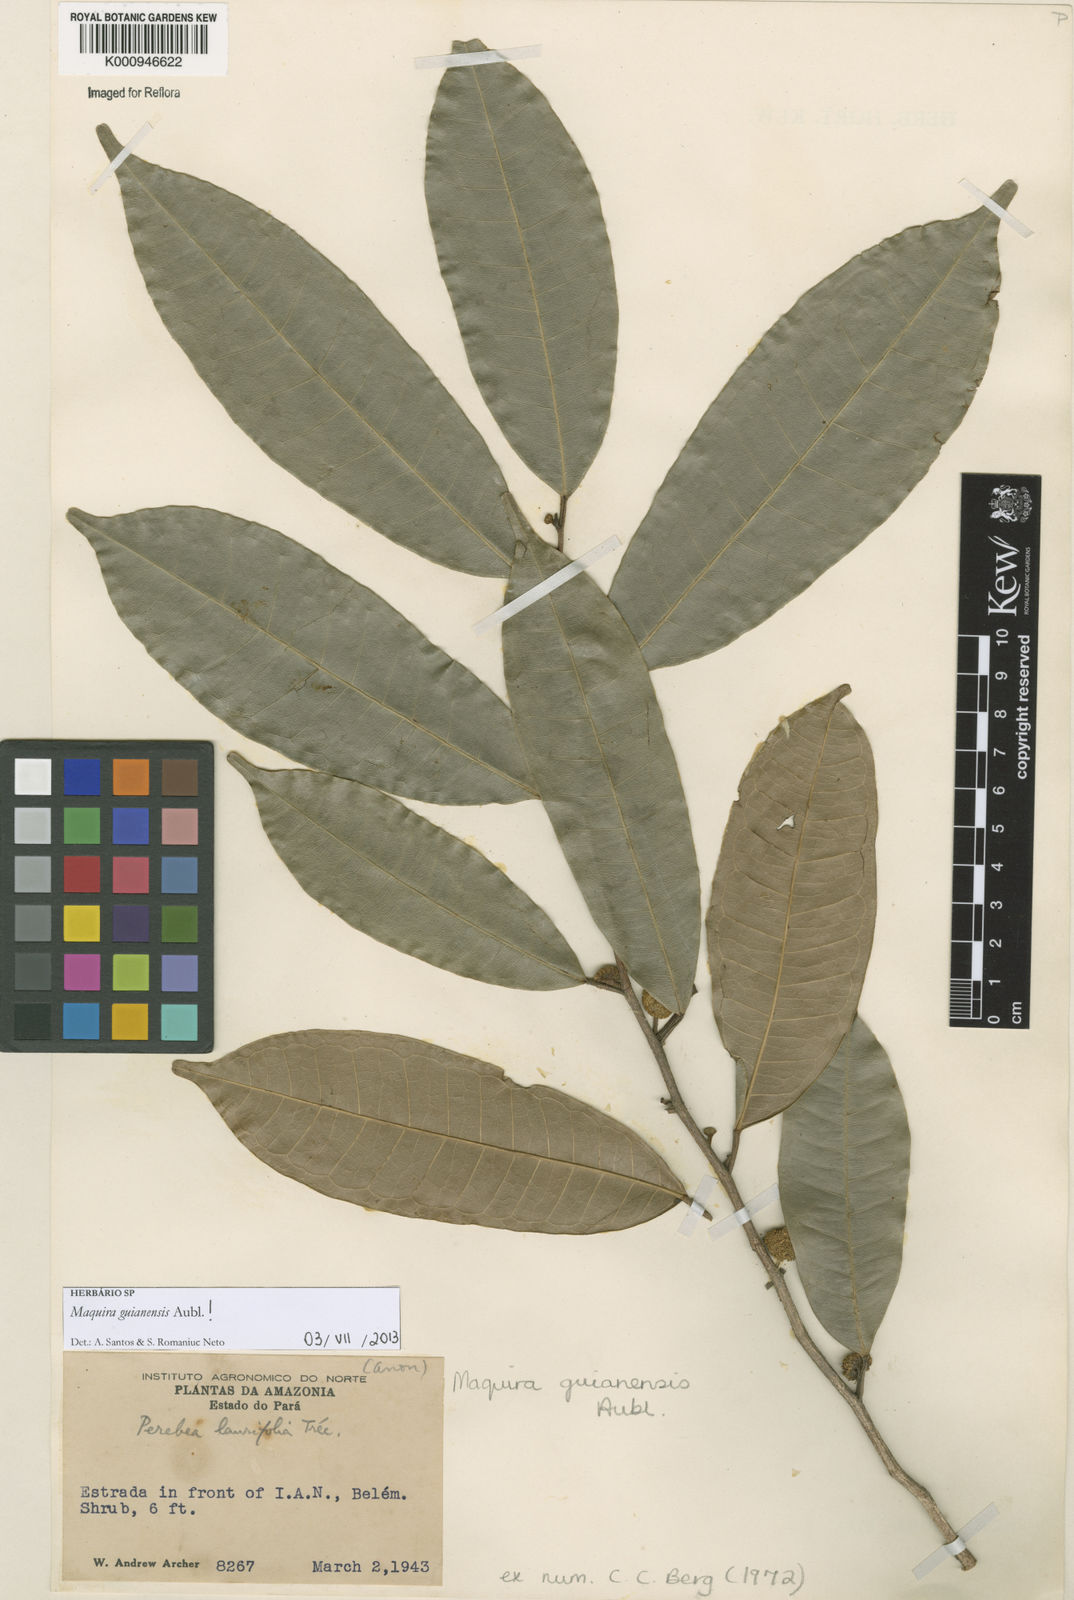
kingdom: Plantae
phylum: Tracheophyta
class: Magnoliopsida
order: Rosales
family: Moraceae
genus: Maquira
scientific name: Maquira guianensis
